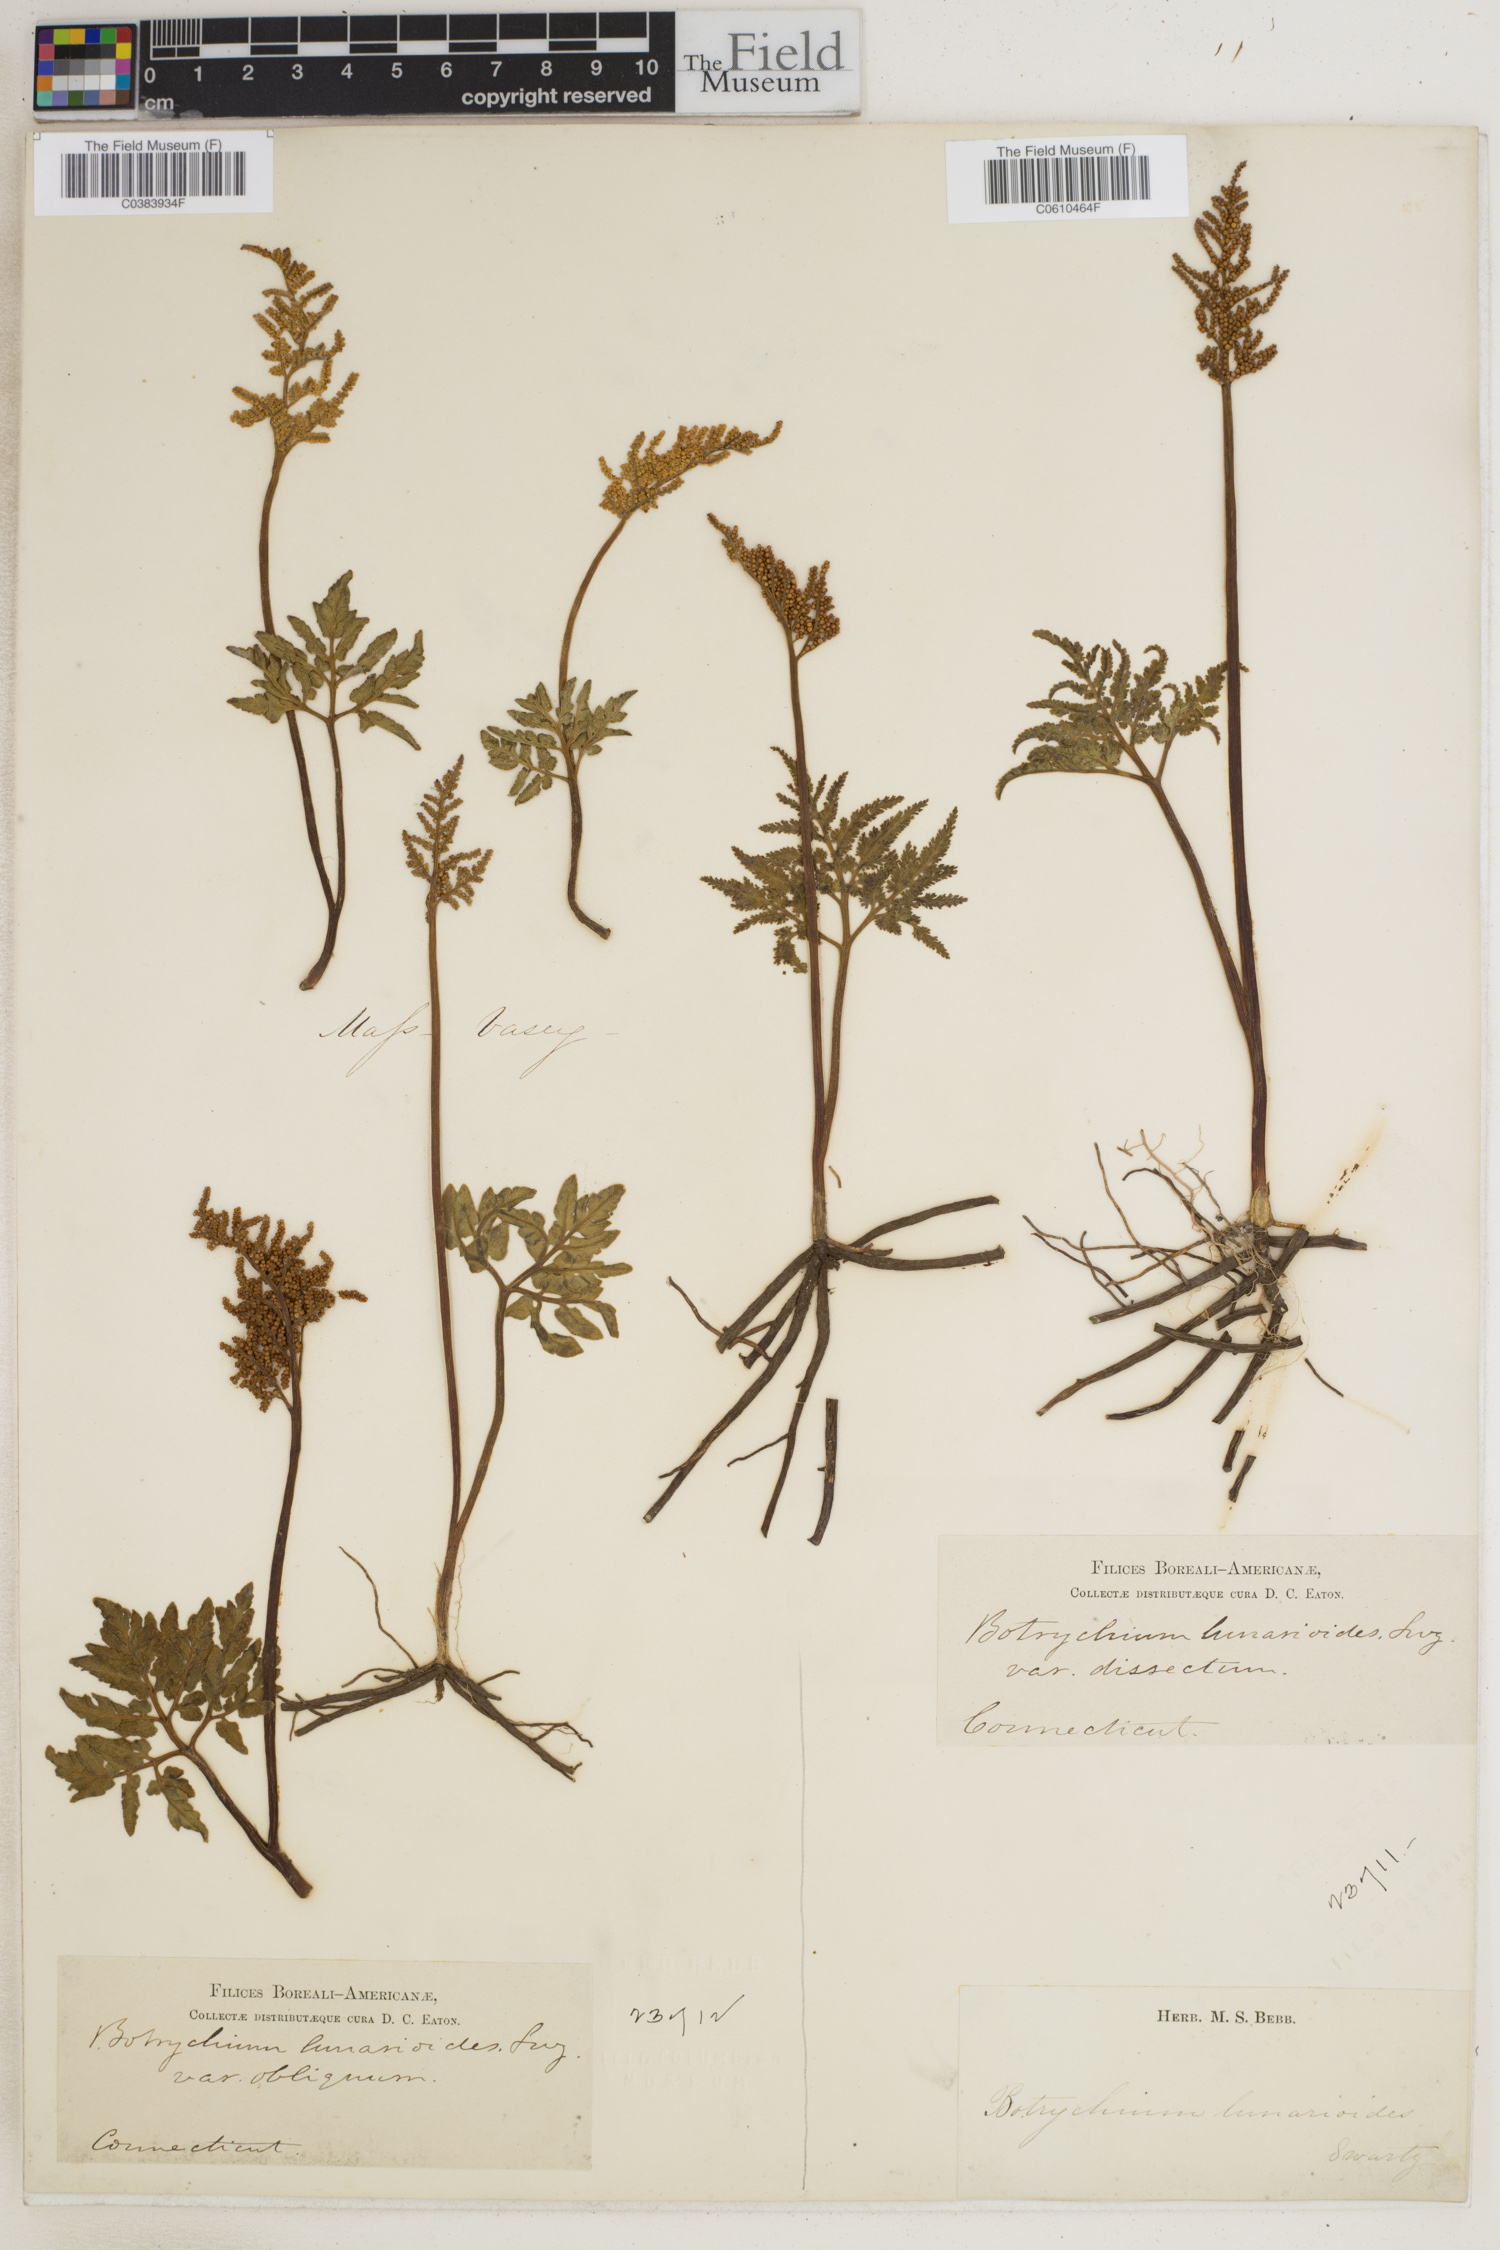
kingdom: Plantae
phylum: Tracheophyta
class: Polypodiopsida
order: Ophioglossales
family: Ophioglossaceae
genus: Sceptridium
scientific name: Sceptridium lunarioides
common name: Prostrate grapefern
